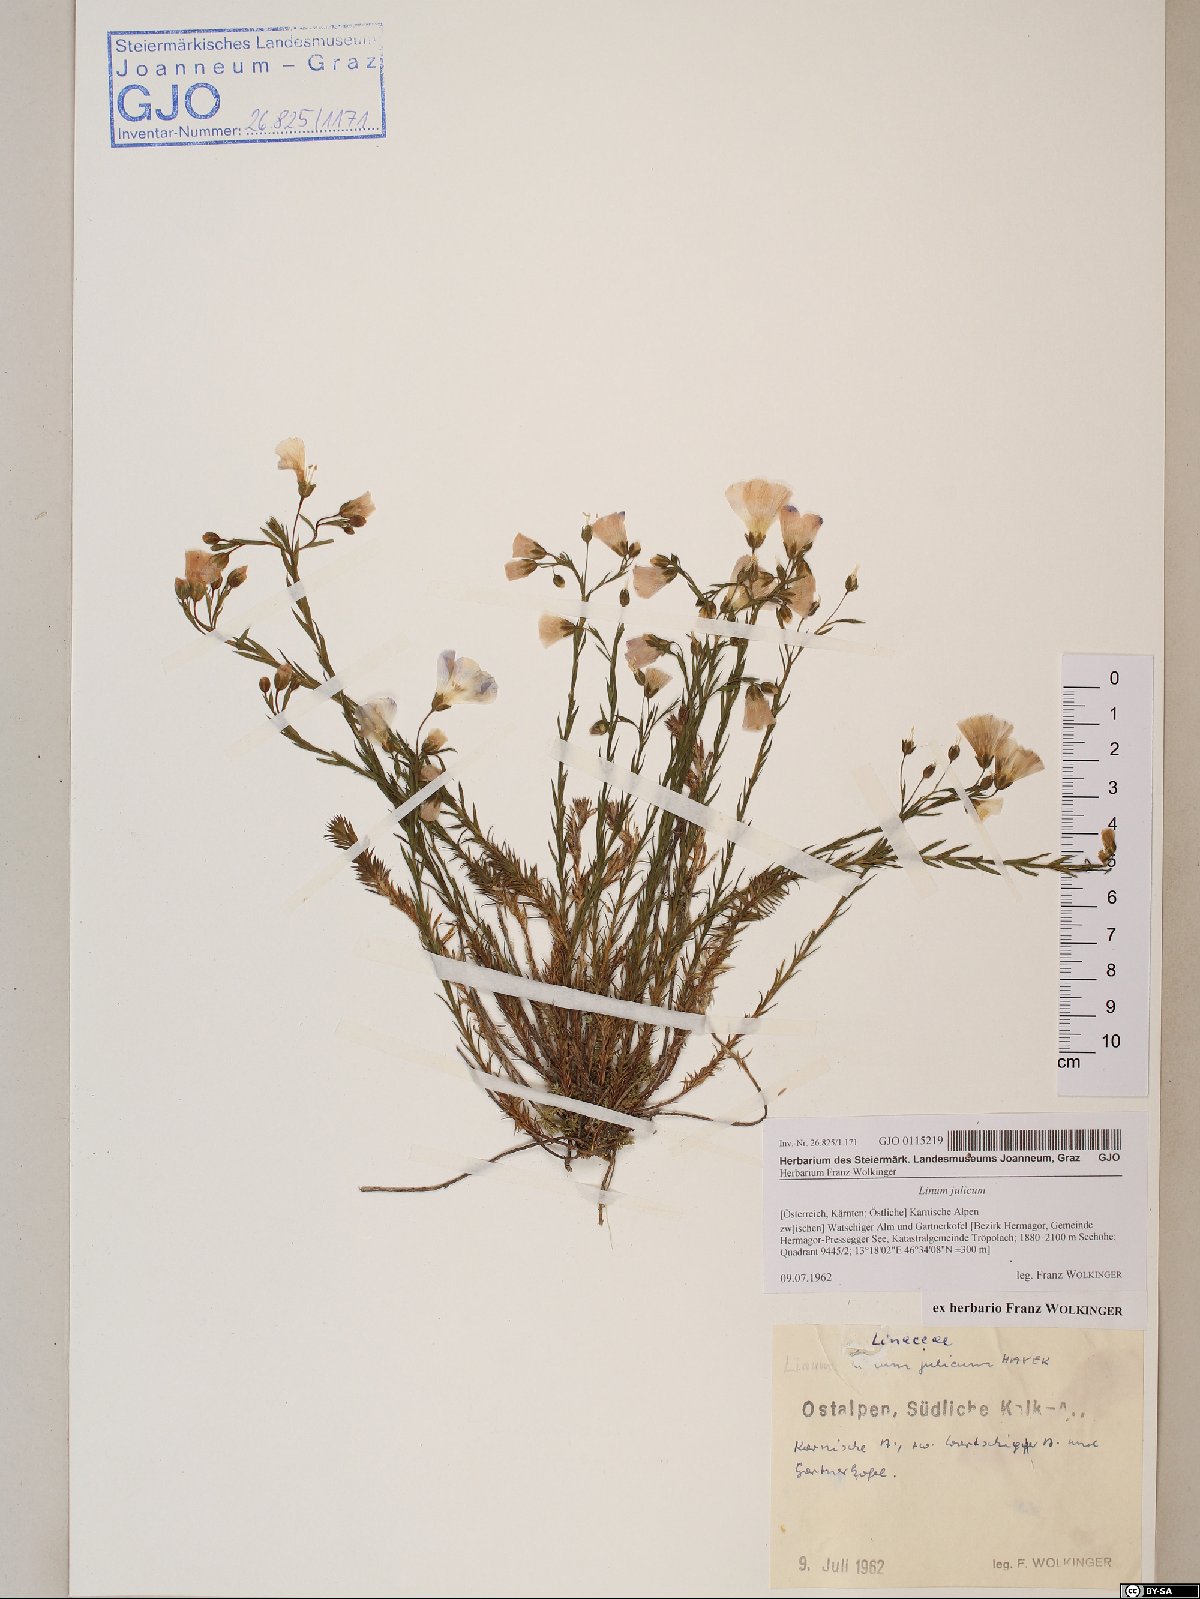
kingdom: Plantae
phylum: Tracheophyta
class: Magnoliopsida
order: Malpighiales
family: Linaceae
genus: Linum
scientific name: Linum alpinum
